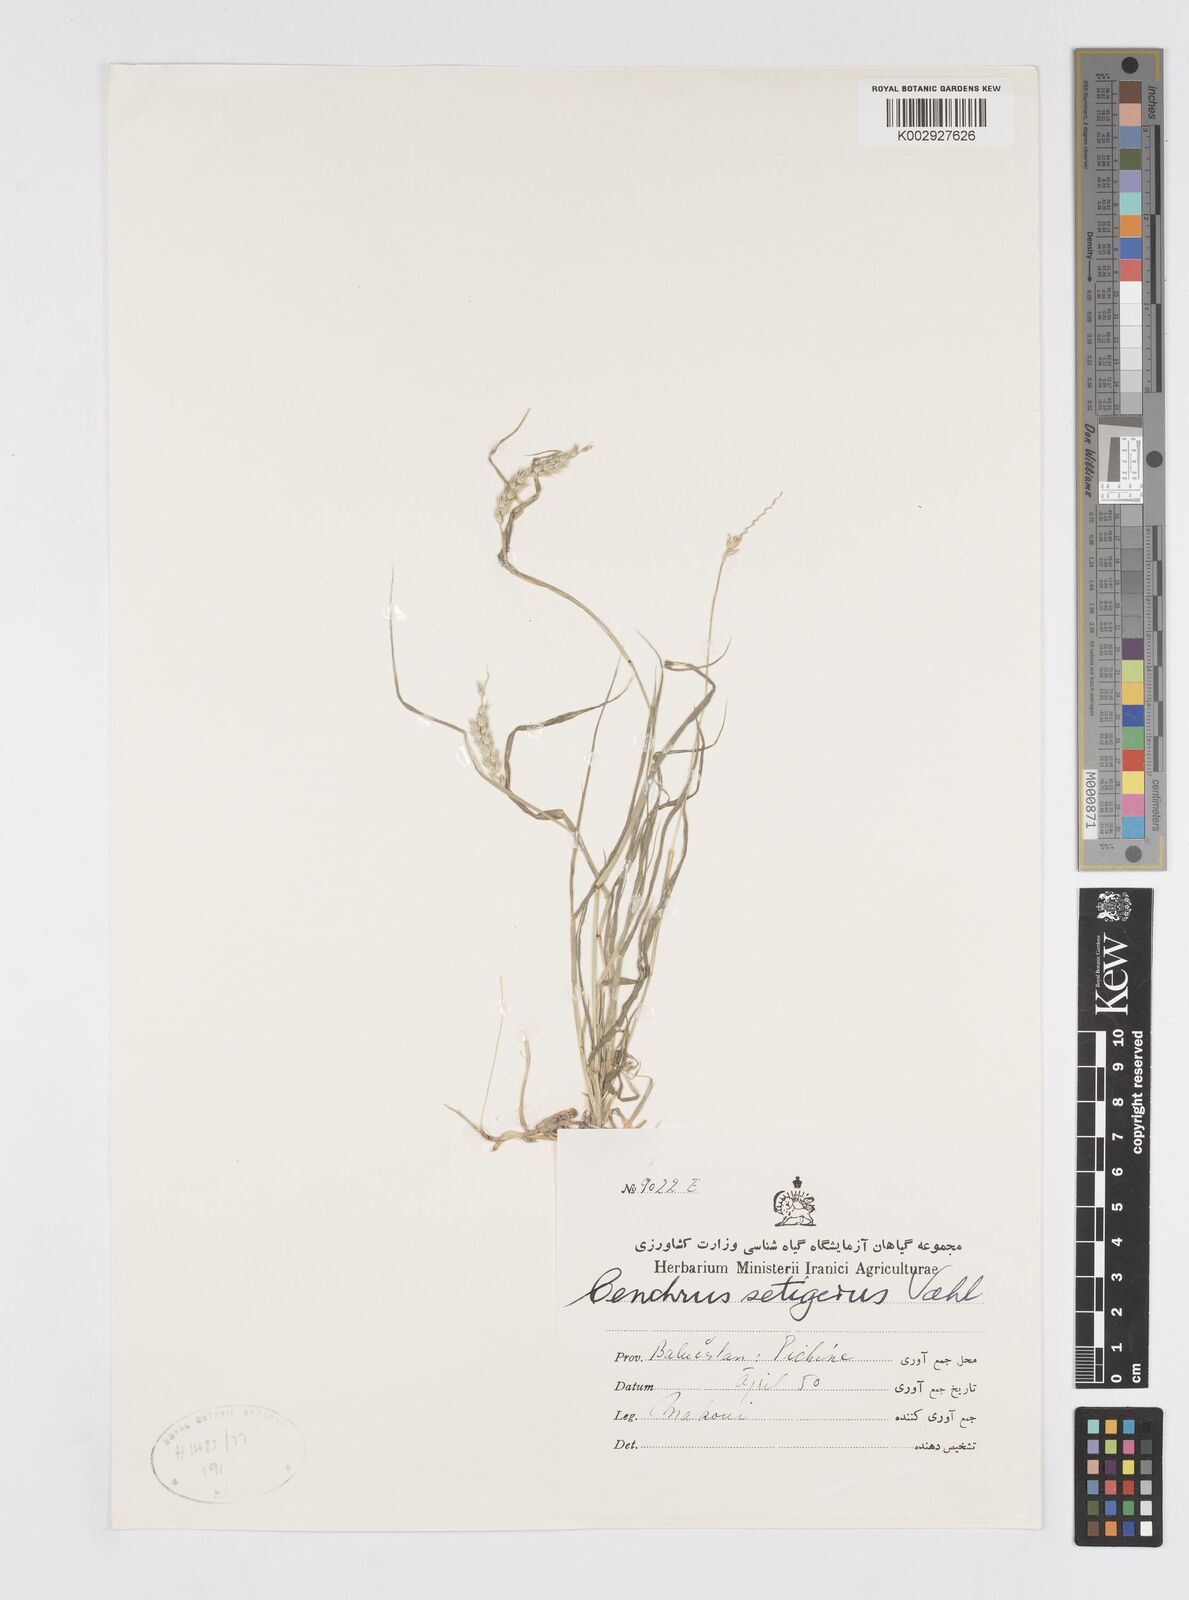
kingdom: Plantae
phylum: Tracheophyta
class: Liliopsida
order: Poales
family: Poaceae
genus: Cenchrus
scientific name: Cenchrus setigerus
